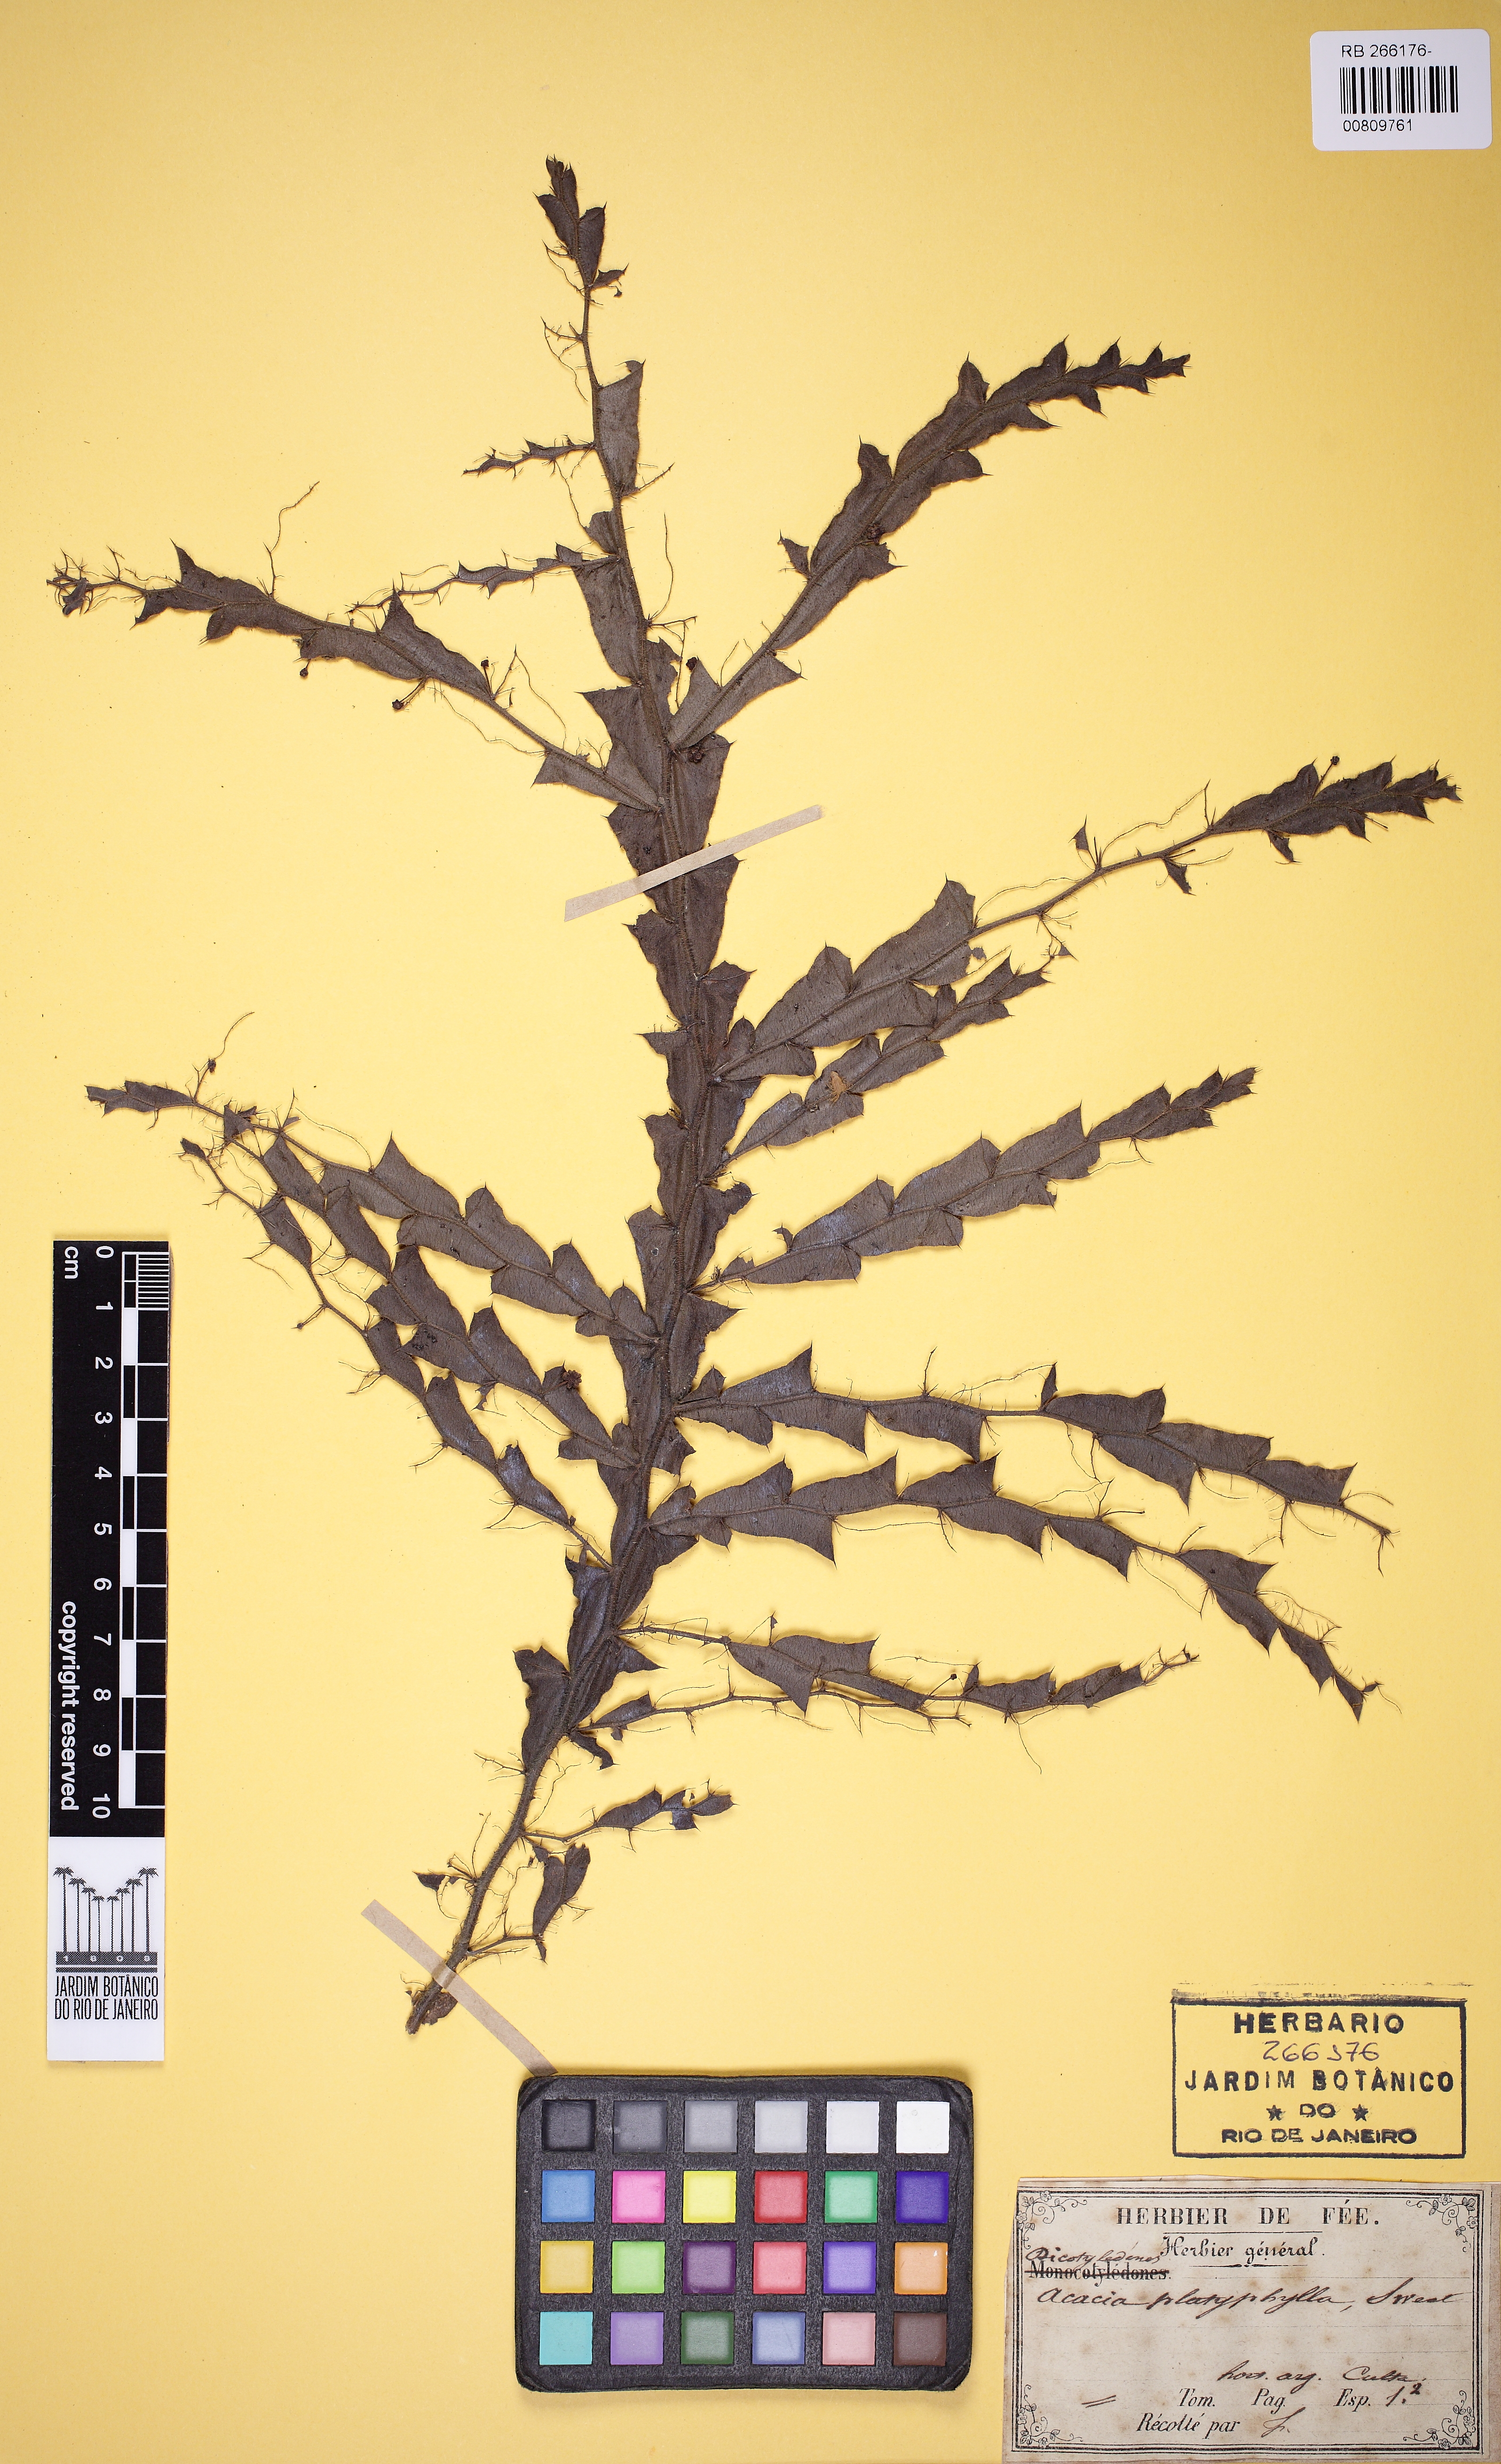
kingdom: Plantae
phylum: Tracheophyta
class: Magnoliopsida
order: Fabales
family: Fabaceae
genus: Acacia
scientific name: Acacia
